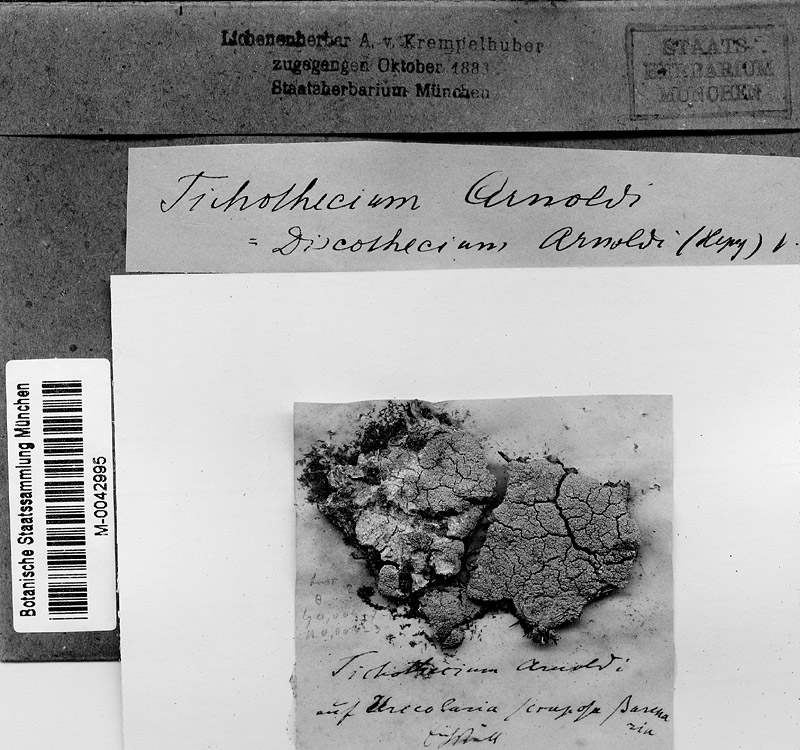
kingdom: Fungi
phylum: Ascomycota
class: Dothideomycetes
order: Mycosphaerellales
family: Mycosphaerellaceae
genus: Sphaerellothecium
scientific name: Sphaerellothecium arnoldii
